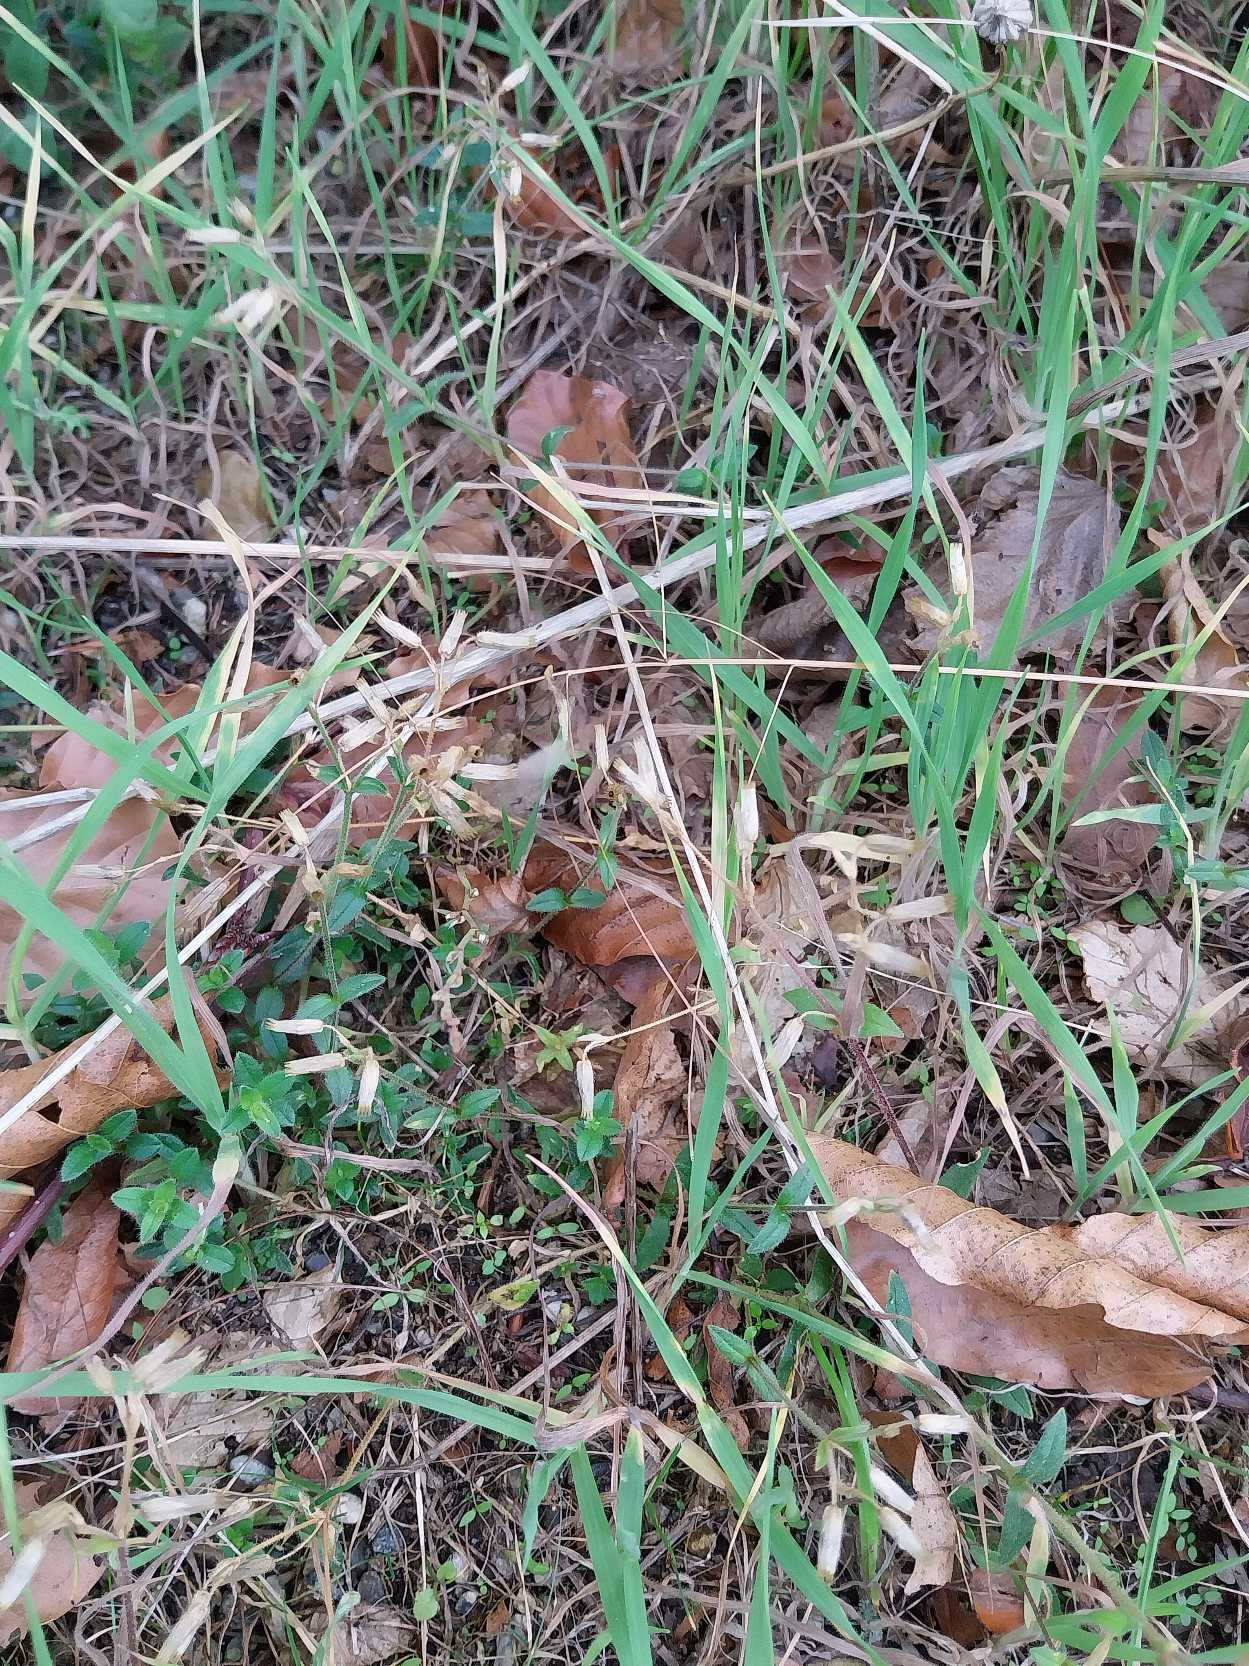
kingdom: Plantae
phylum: Tracheophyta
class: Magnoliopsida
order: Caryophyllales
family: Caryophyllaceae
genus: Cerastium
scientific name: Cerastium fontanum
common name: Almindelig hønsetarm
